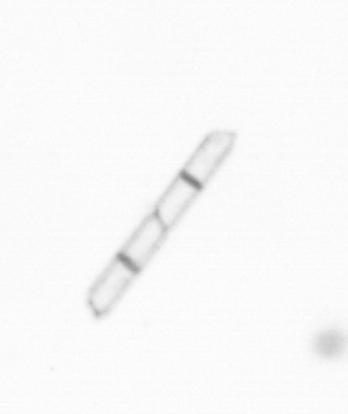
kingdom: Chromista
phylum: Ochrophyta
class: Bacillariophyceae
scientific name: Bacillariophyceae
